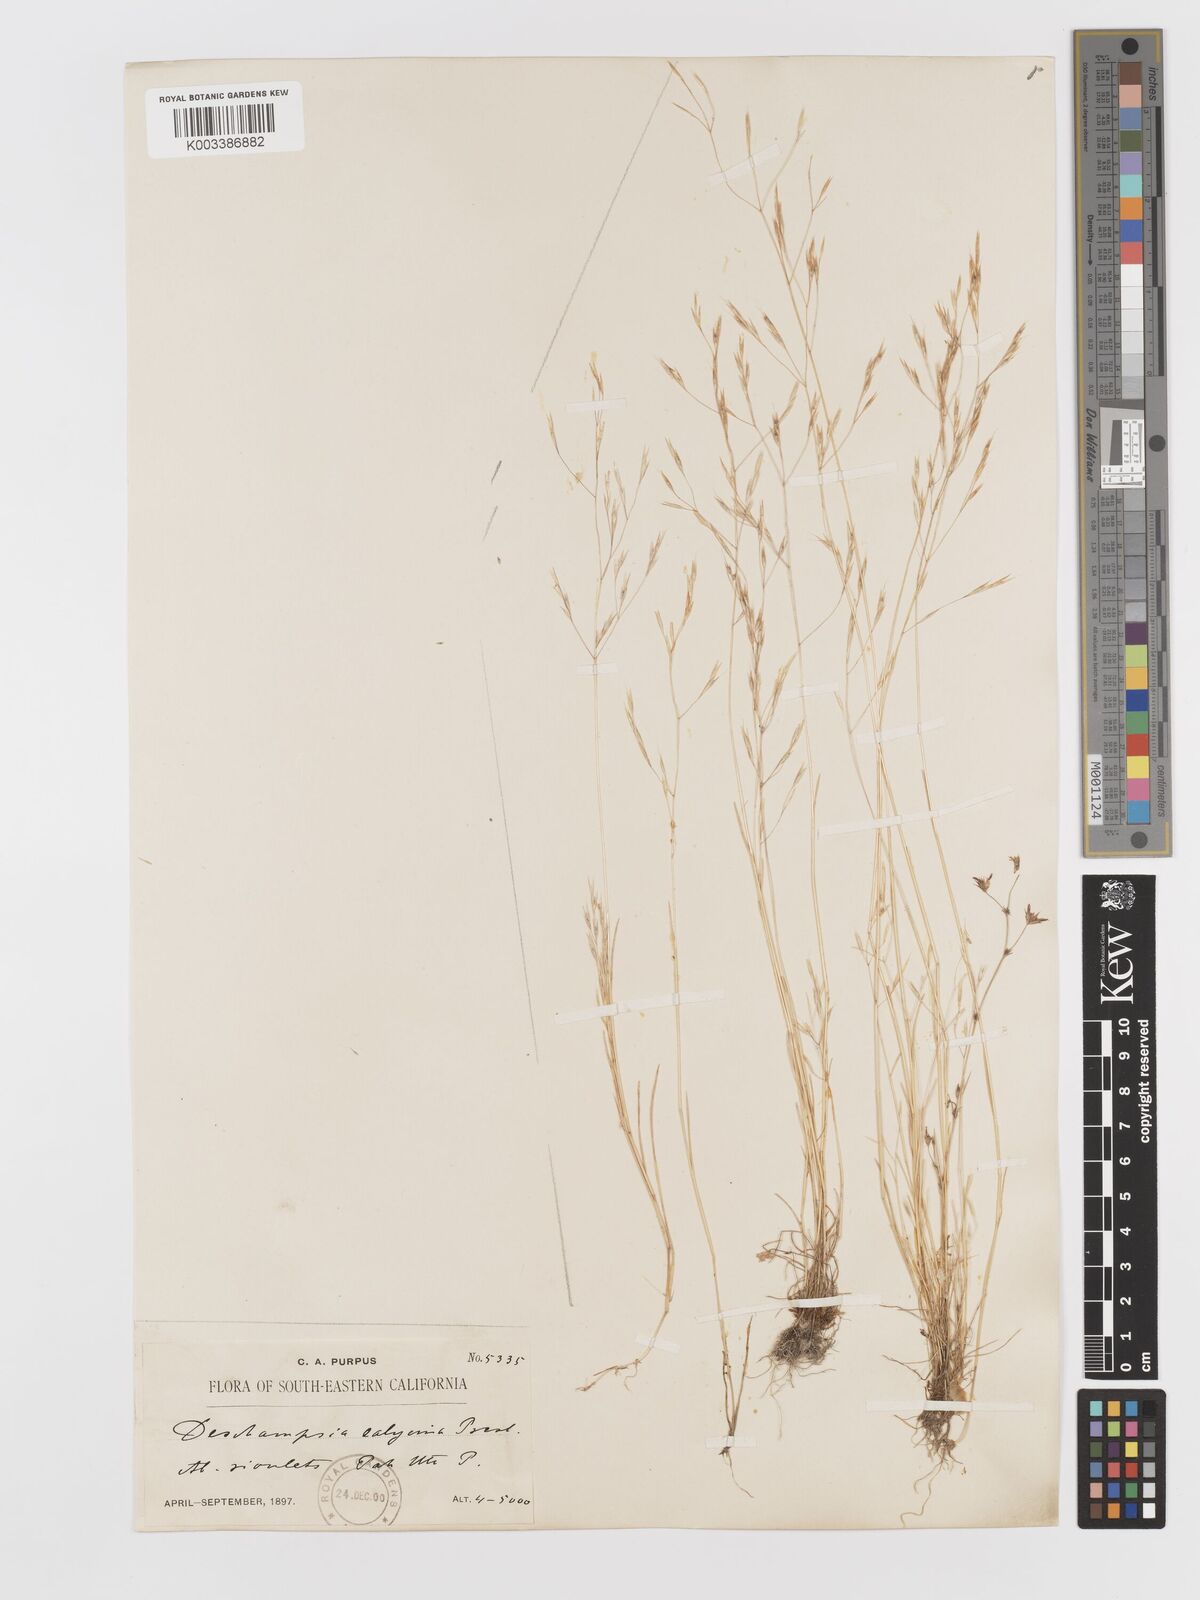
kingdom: Plantae
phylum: Tracheophyta
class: Liliopsida
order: Poales
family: Poaceae
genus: Deschampsia
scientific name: Deschampsia danthonioides
